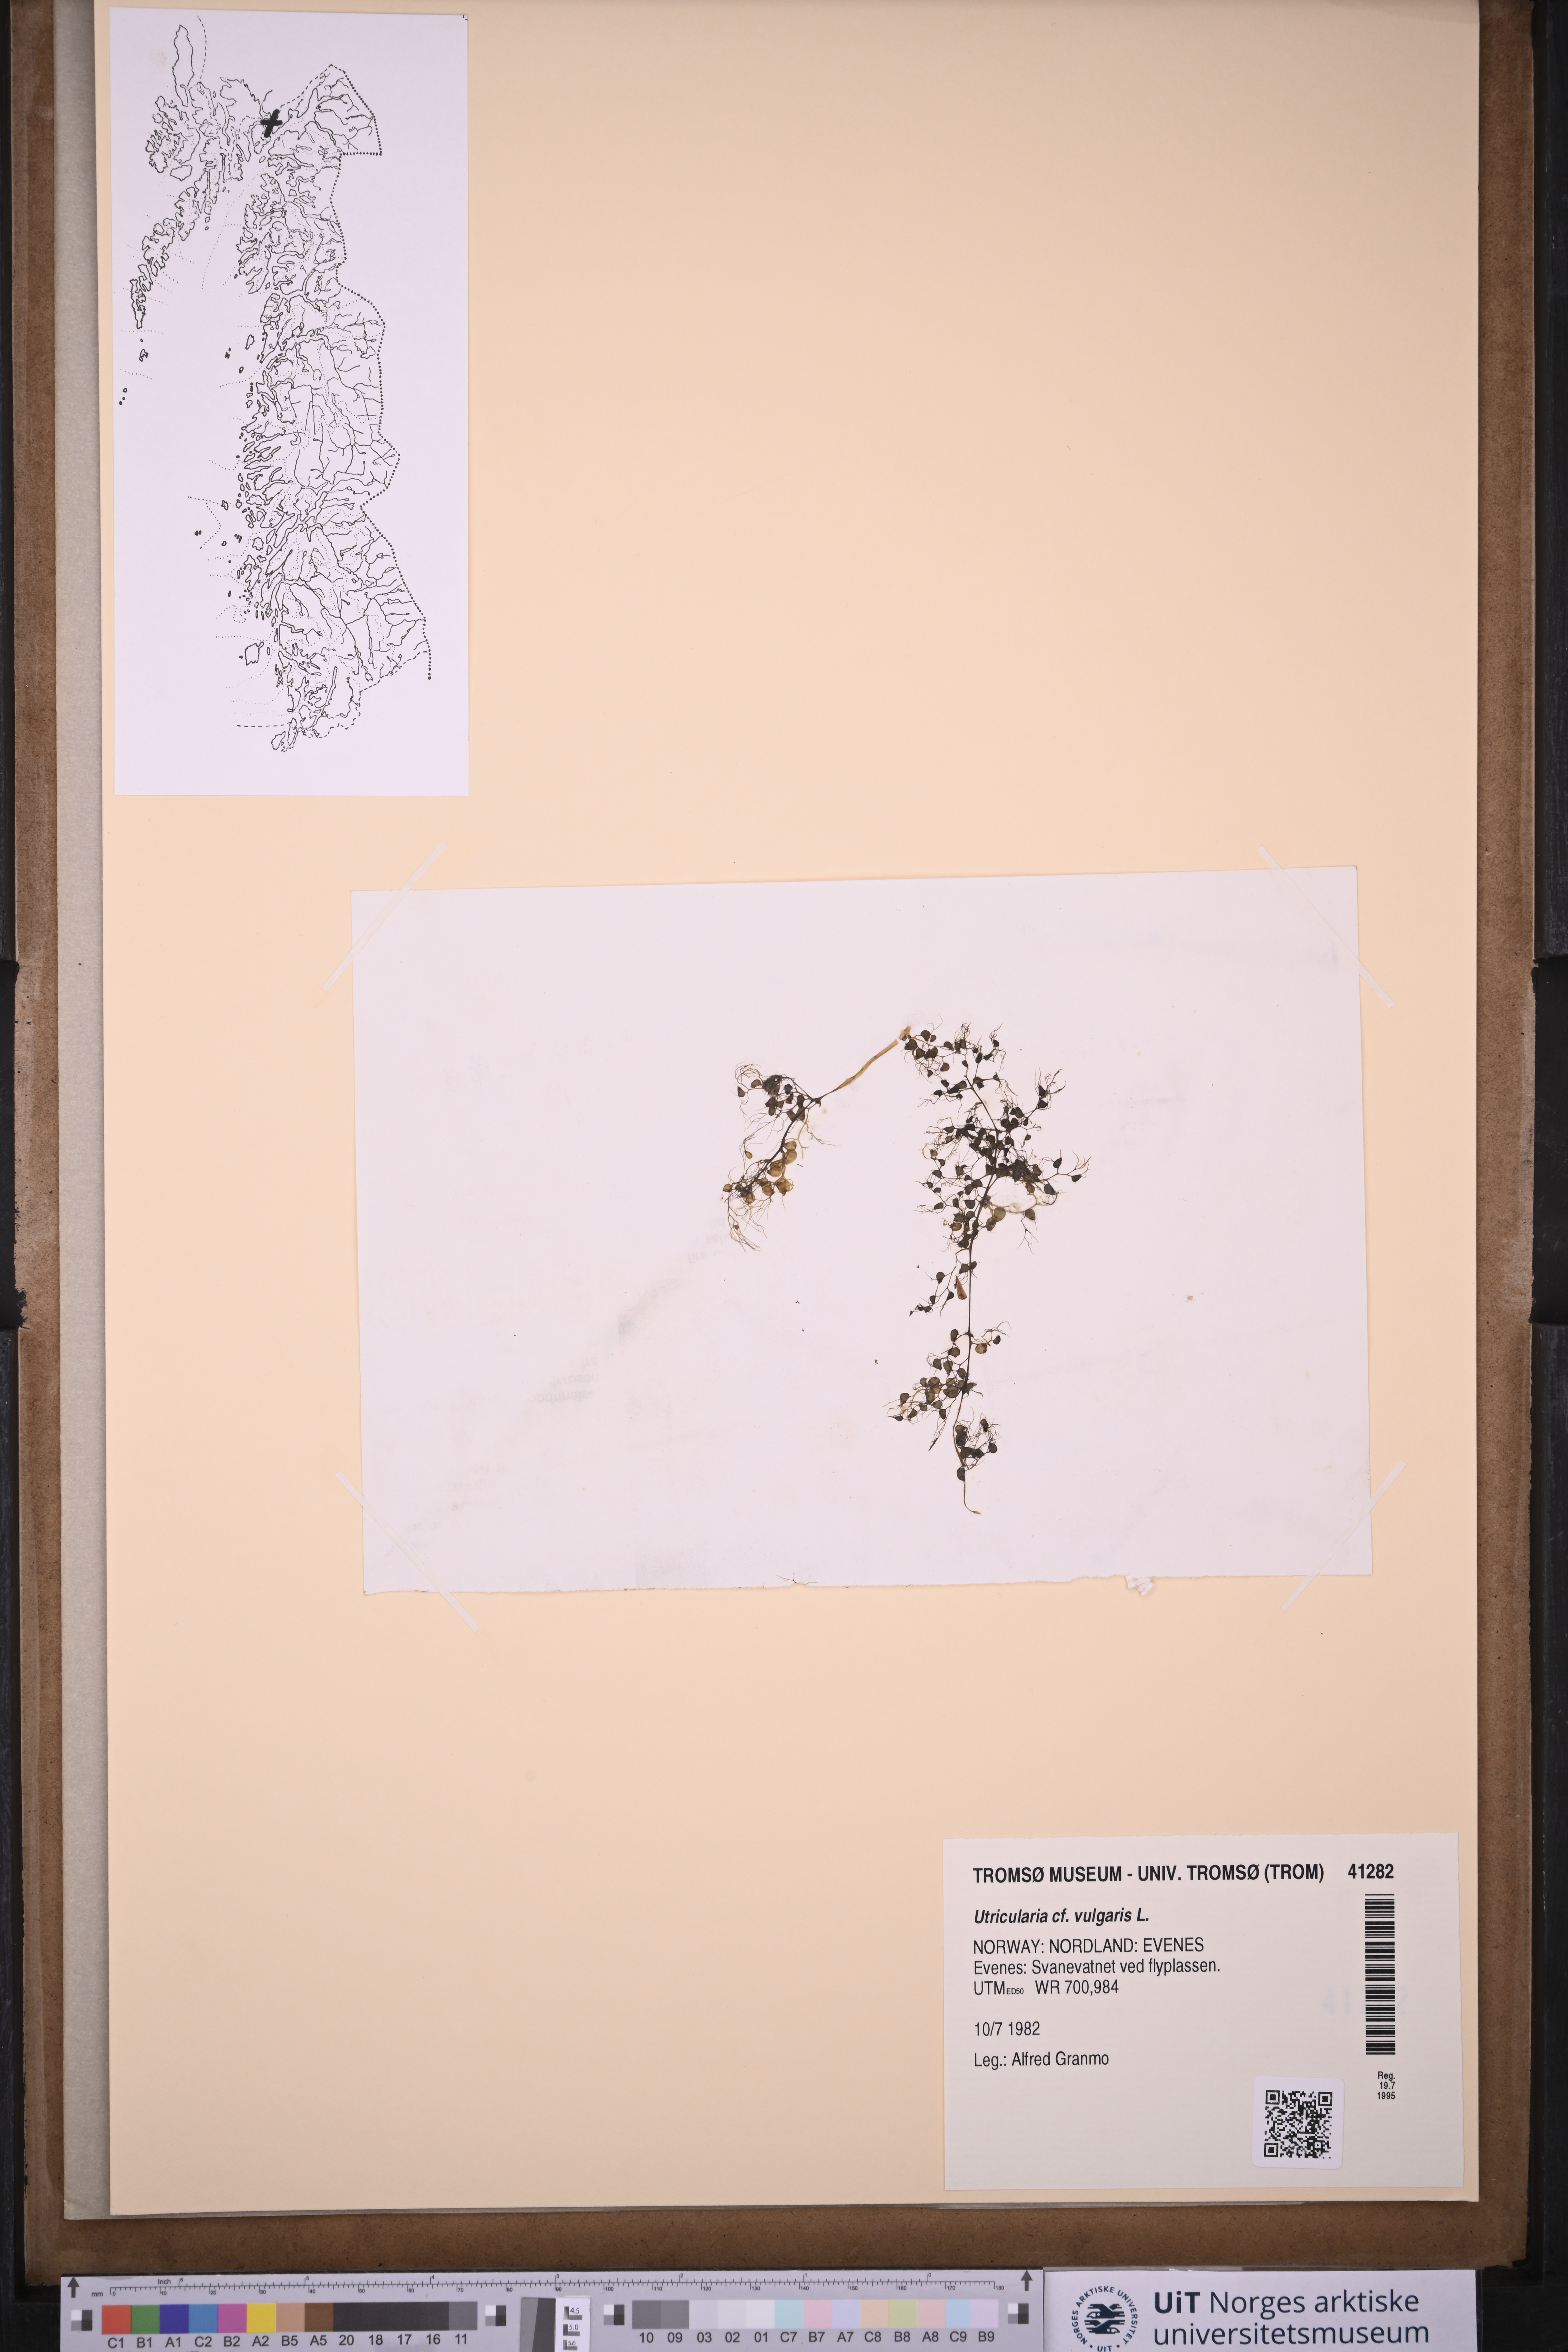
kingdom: Plantae
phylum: Tracheophyta
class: Magnoliopsida
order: Lamiales
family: Lentibulariaceae
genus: Utricularia
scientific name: Utricularia vulgaris
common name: Greater bladderwort
